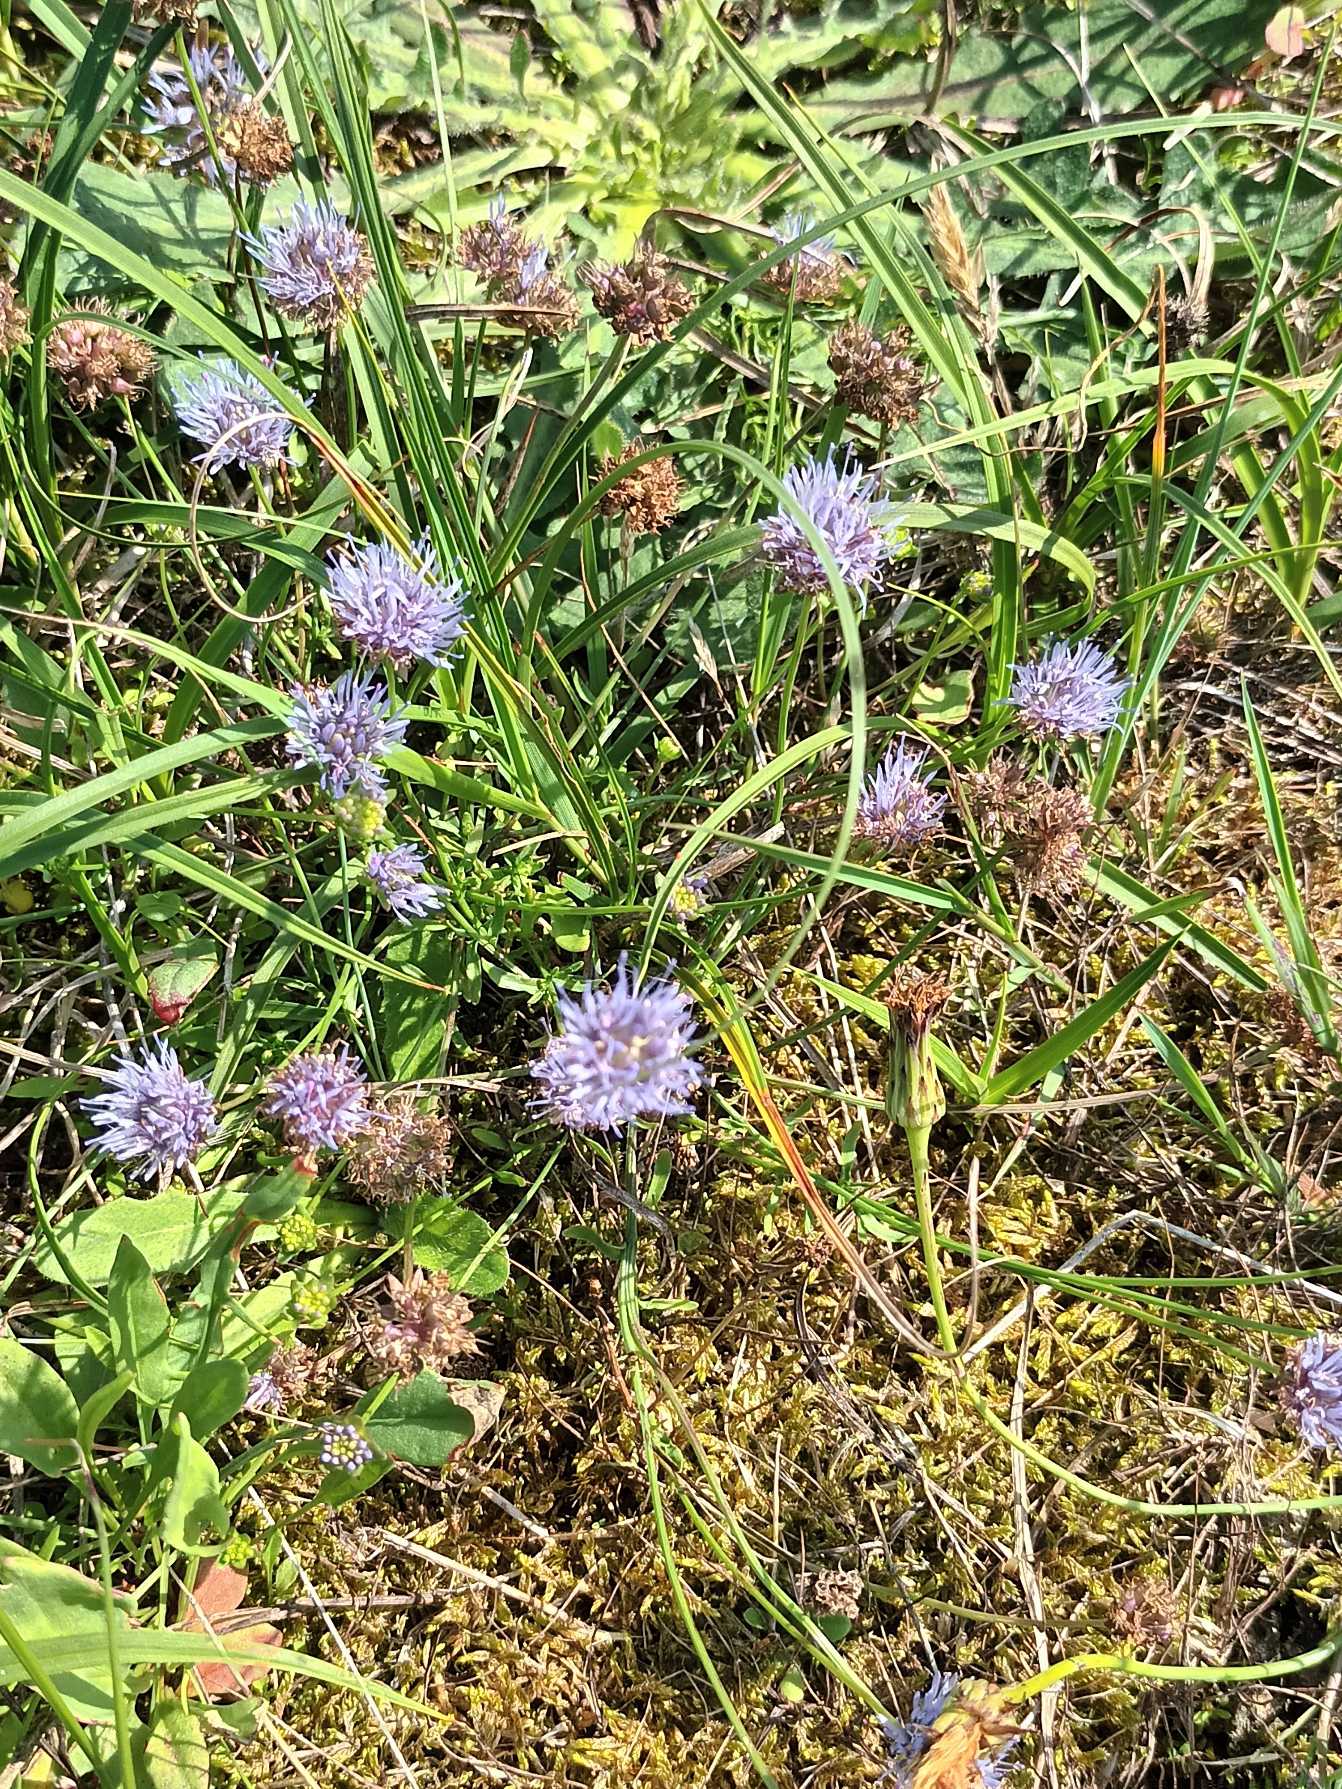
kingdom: Plantae
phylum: Tracheophyta
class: Magnoliopsida
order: Asterales
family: Campanulaceae
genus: Jasione
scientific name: Jasione montana
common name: Blåmunke
